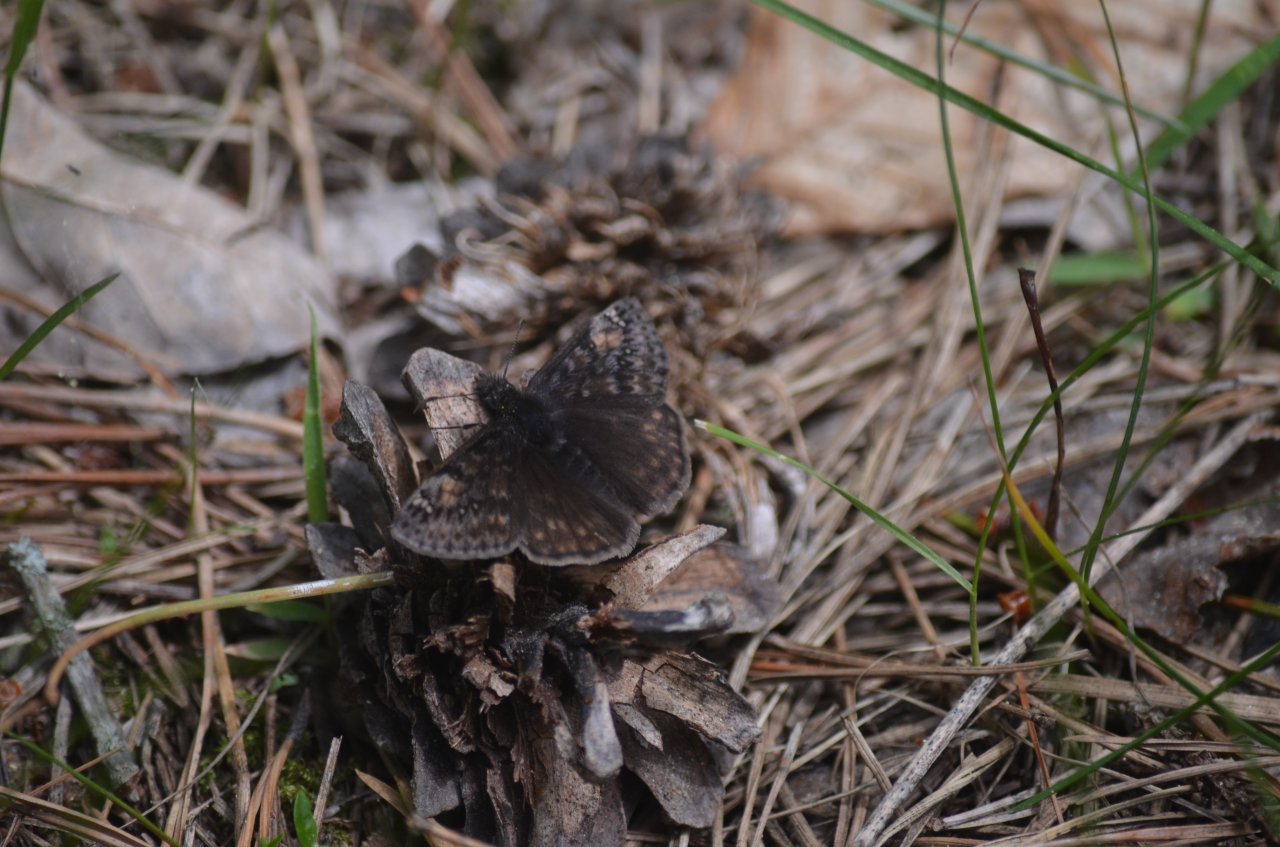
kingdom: Animalia
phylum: Arthropoda
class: Insecta
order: Lepidoptera
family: Hesperiidae
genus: Gesta
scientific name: Gesta
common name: Juvenal's Duskywing
